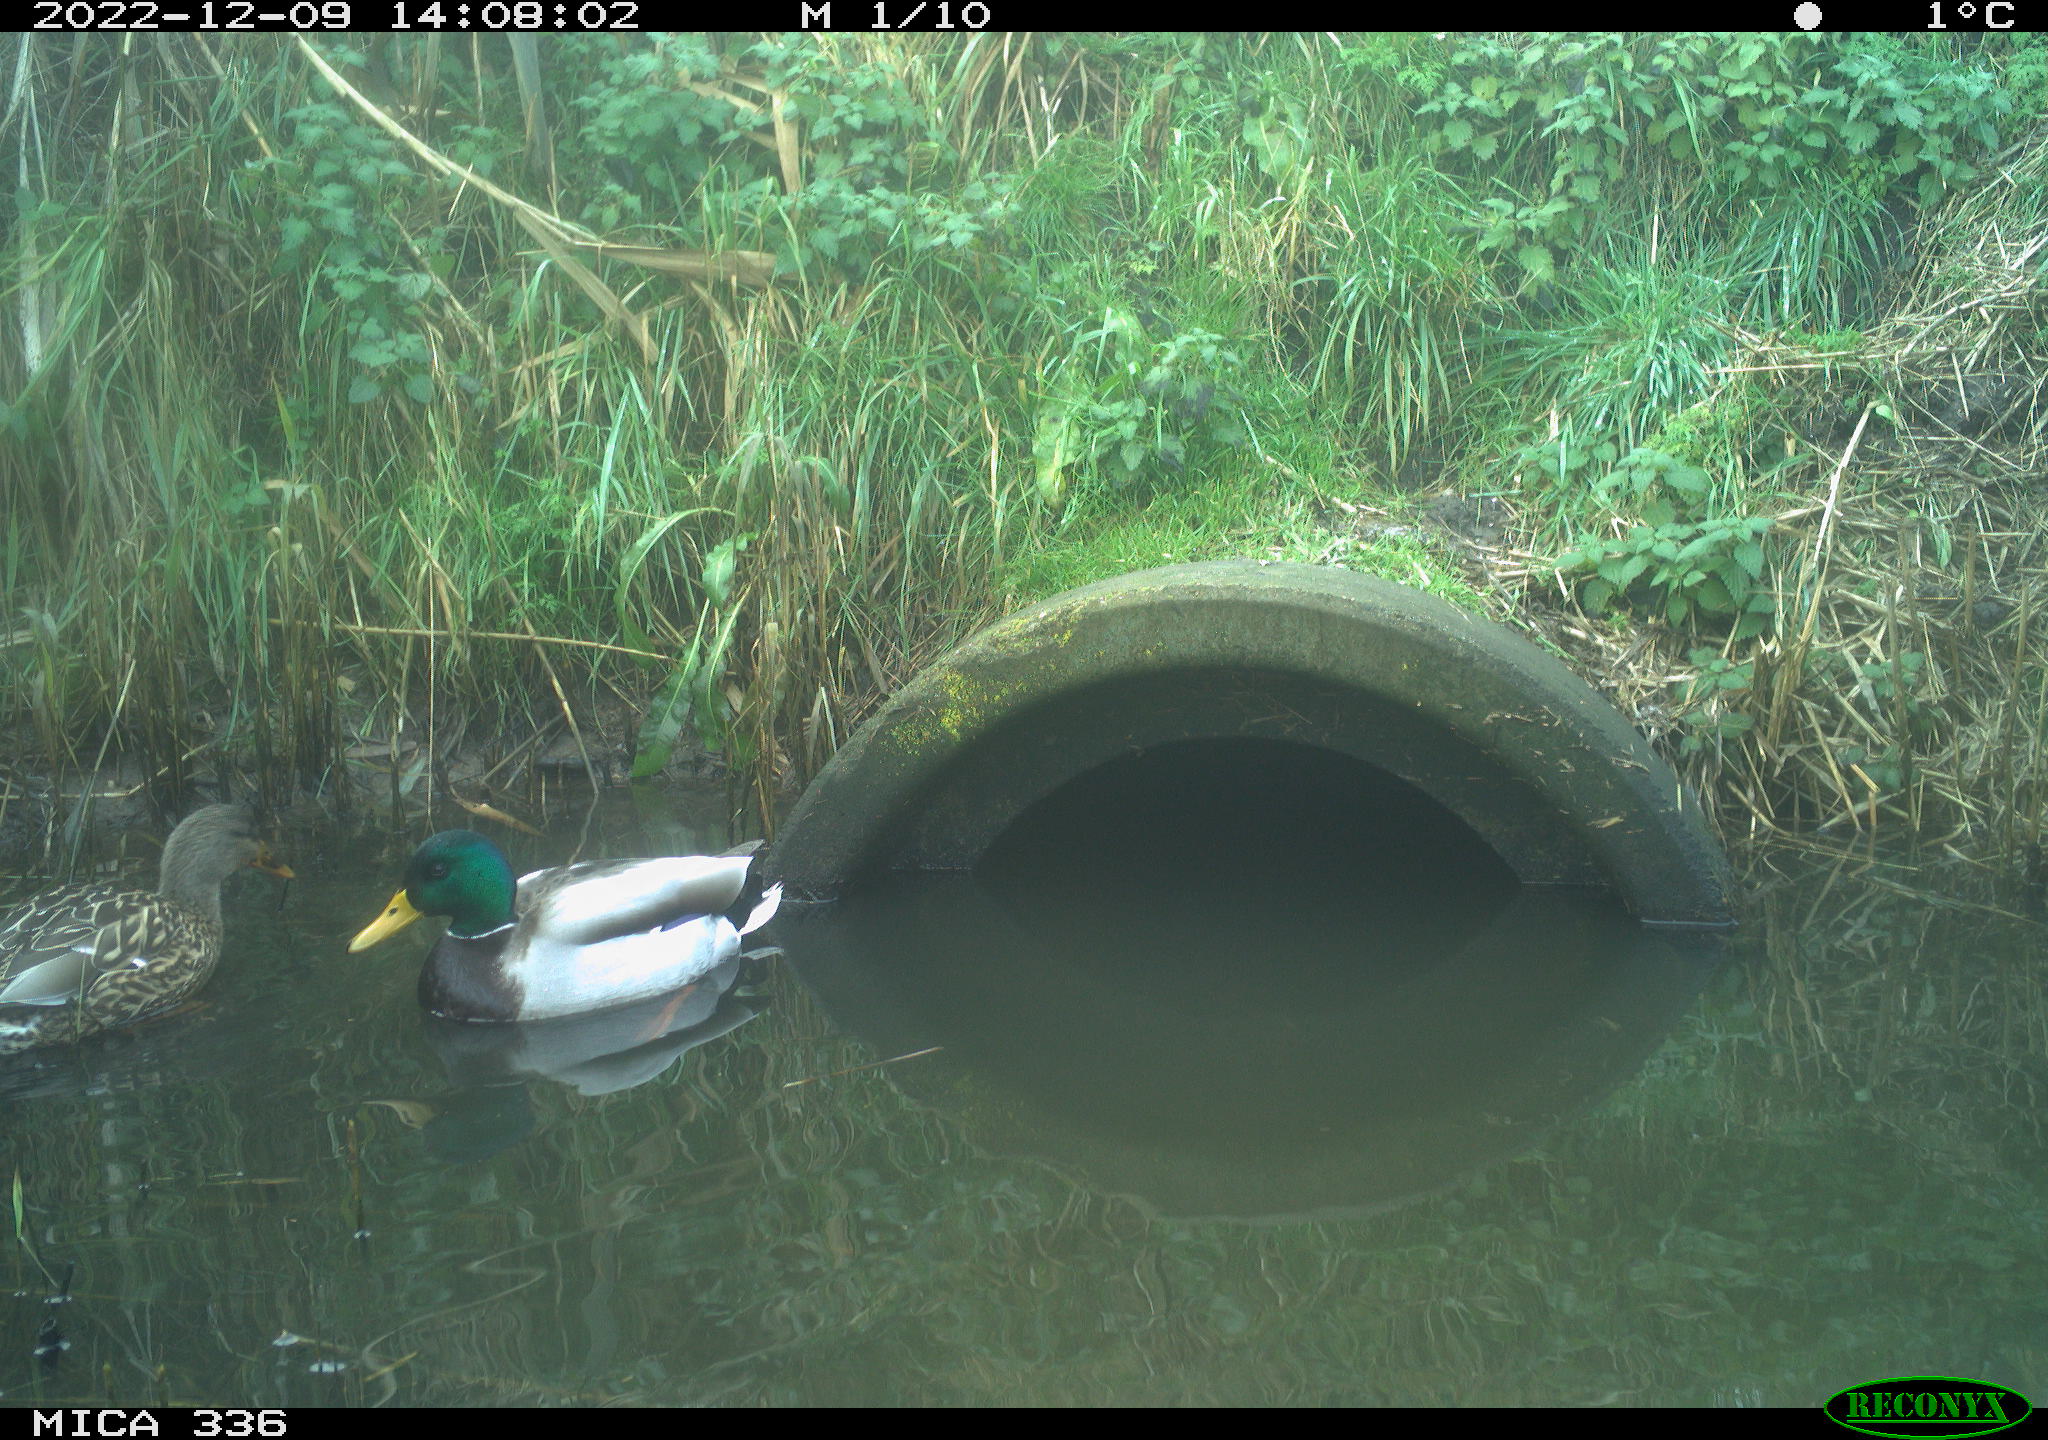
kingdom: Animalia
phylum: Chordata
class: Aves
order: Anseriformes
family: Anatidae
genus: Anas
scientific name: Anas
